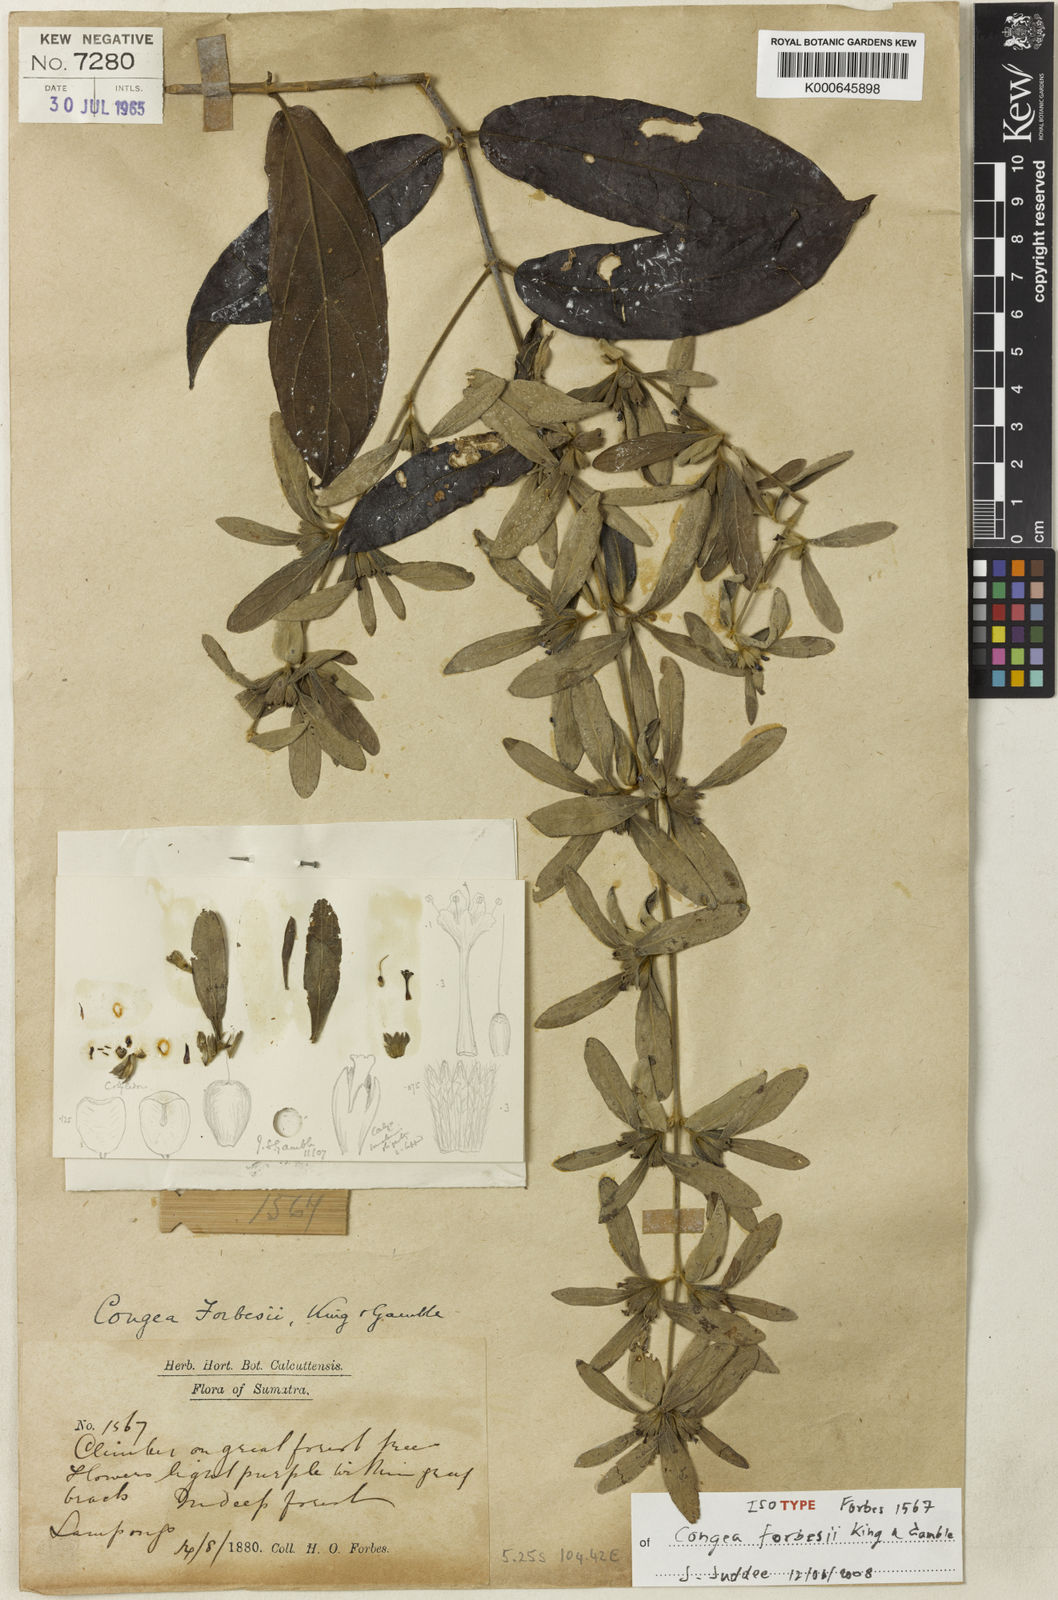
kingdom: Plantae
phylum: Tracheophyta
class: Magnoliopsida
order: Lamiales
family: Lamiaceae
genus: Congea
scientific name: Congea
